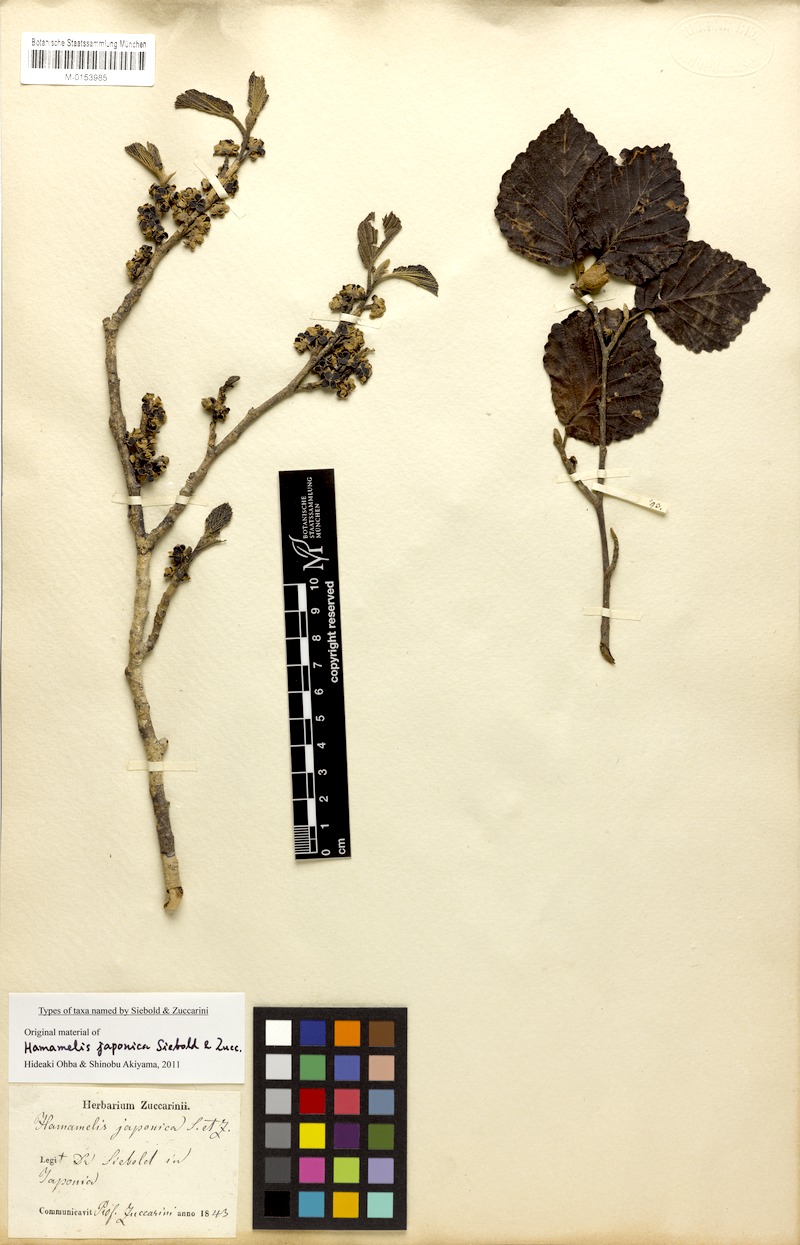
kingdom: Plantae
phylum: Tracheophyta
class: Magnoliopsida
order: Saxifragales
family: Hamamelidaceae
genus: Hamamelis
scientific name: Hamamelis japonica
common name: Japanese witch-hazel
